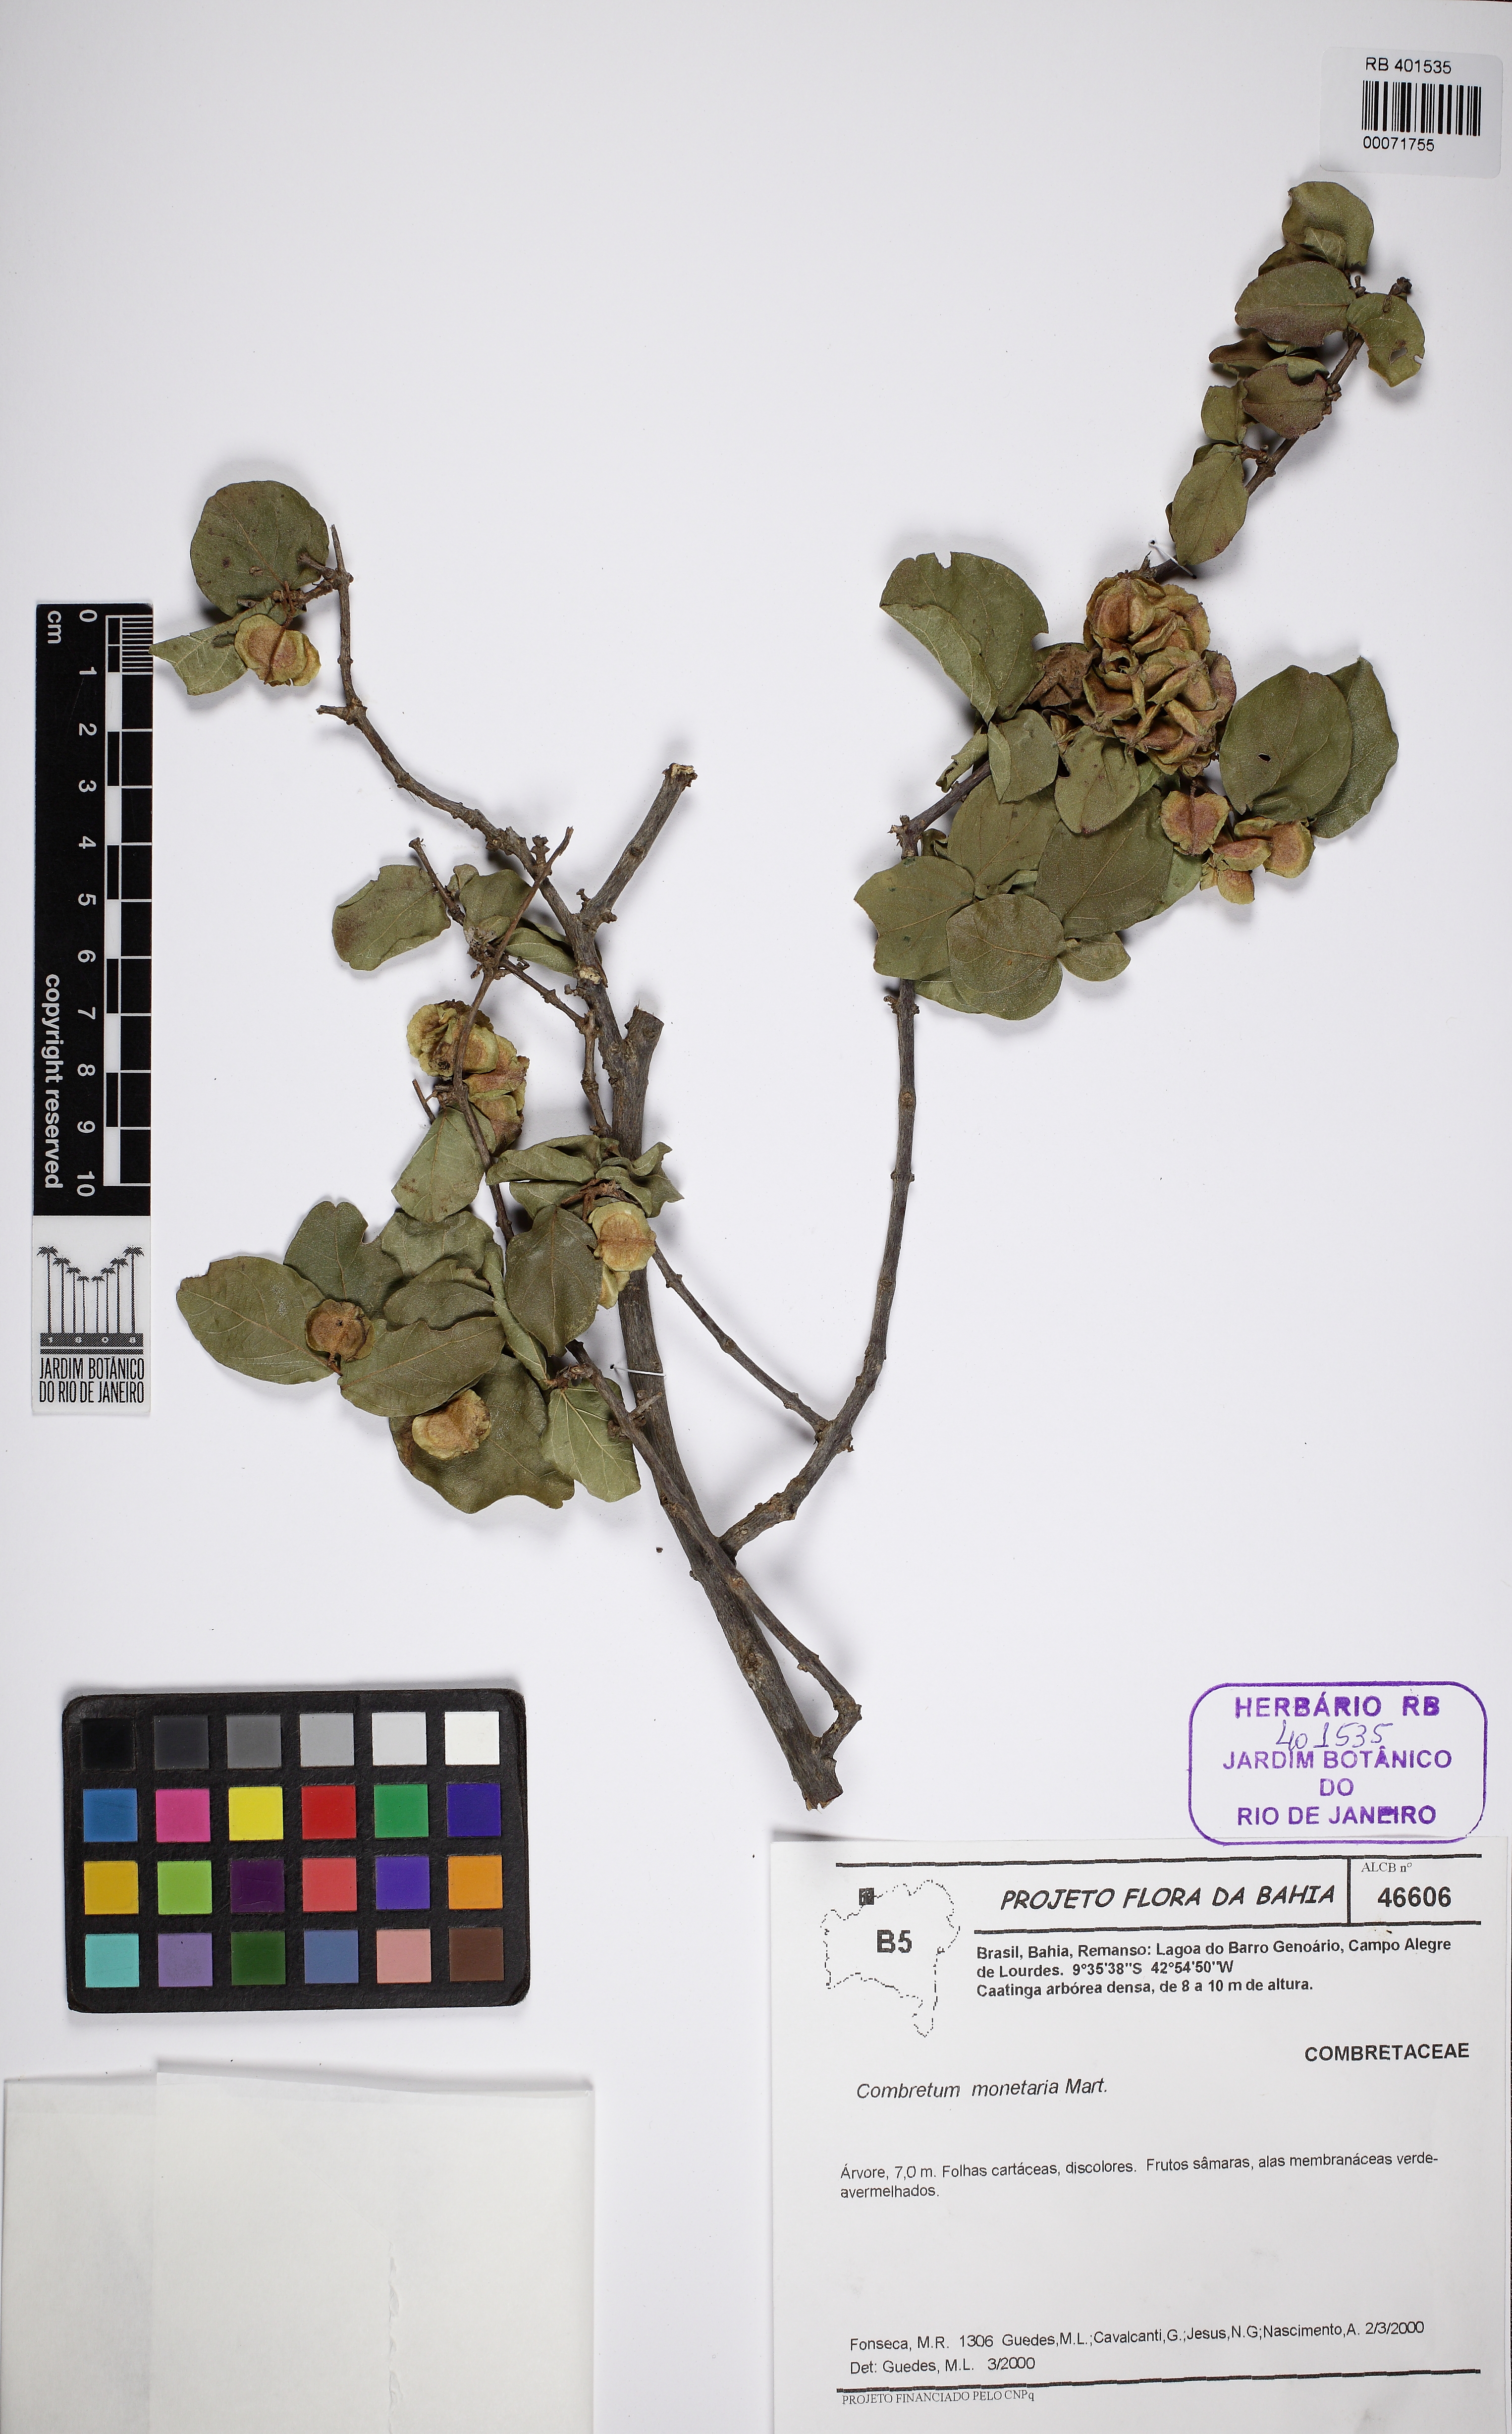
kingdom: Plantae
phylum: Tracheophyta
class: Magnoliopsida
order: Myrtales
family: Combretaceae
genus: Combretum
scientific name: Combretum monetaria
